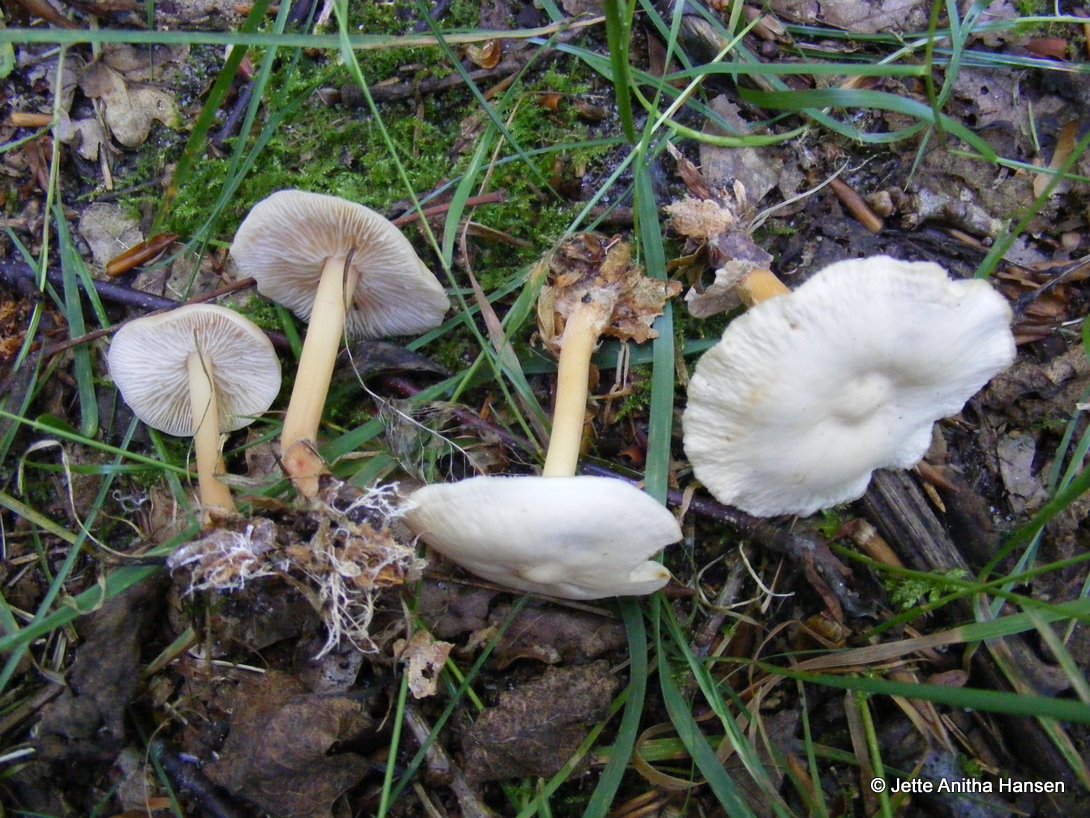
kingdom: Fungi
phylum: Basidiomycota
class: Agaricomycetes
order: Agaricales
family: Omphalotaceae
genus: Gymnopus
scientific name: Gymnopus aquosus
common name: bleg fladhat
